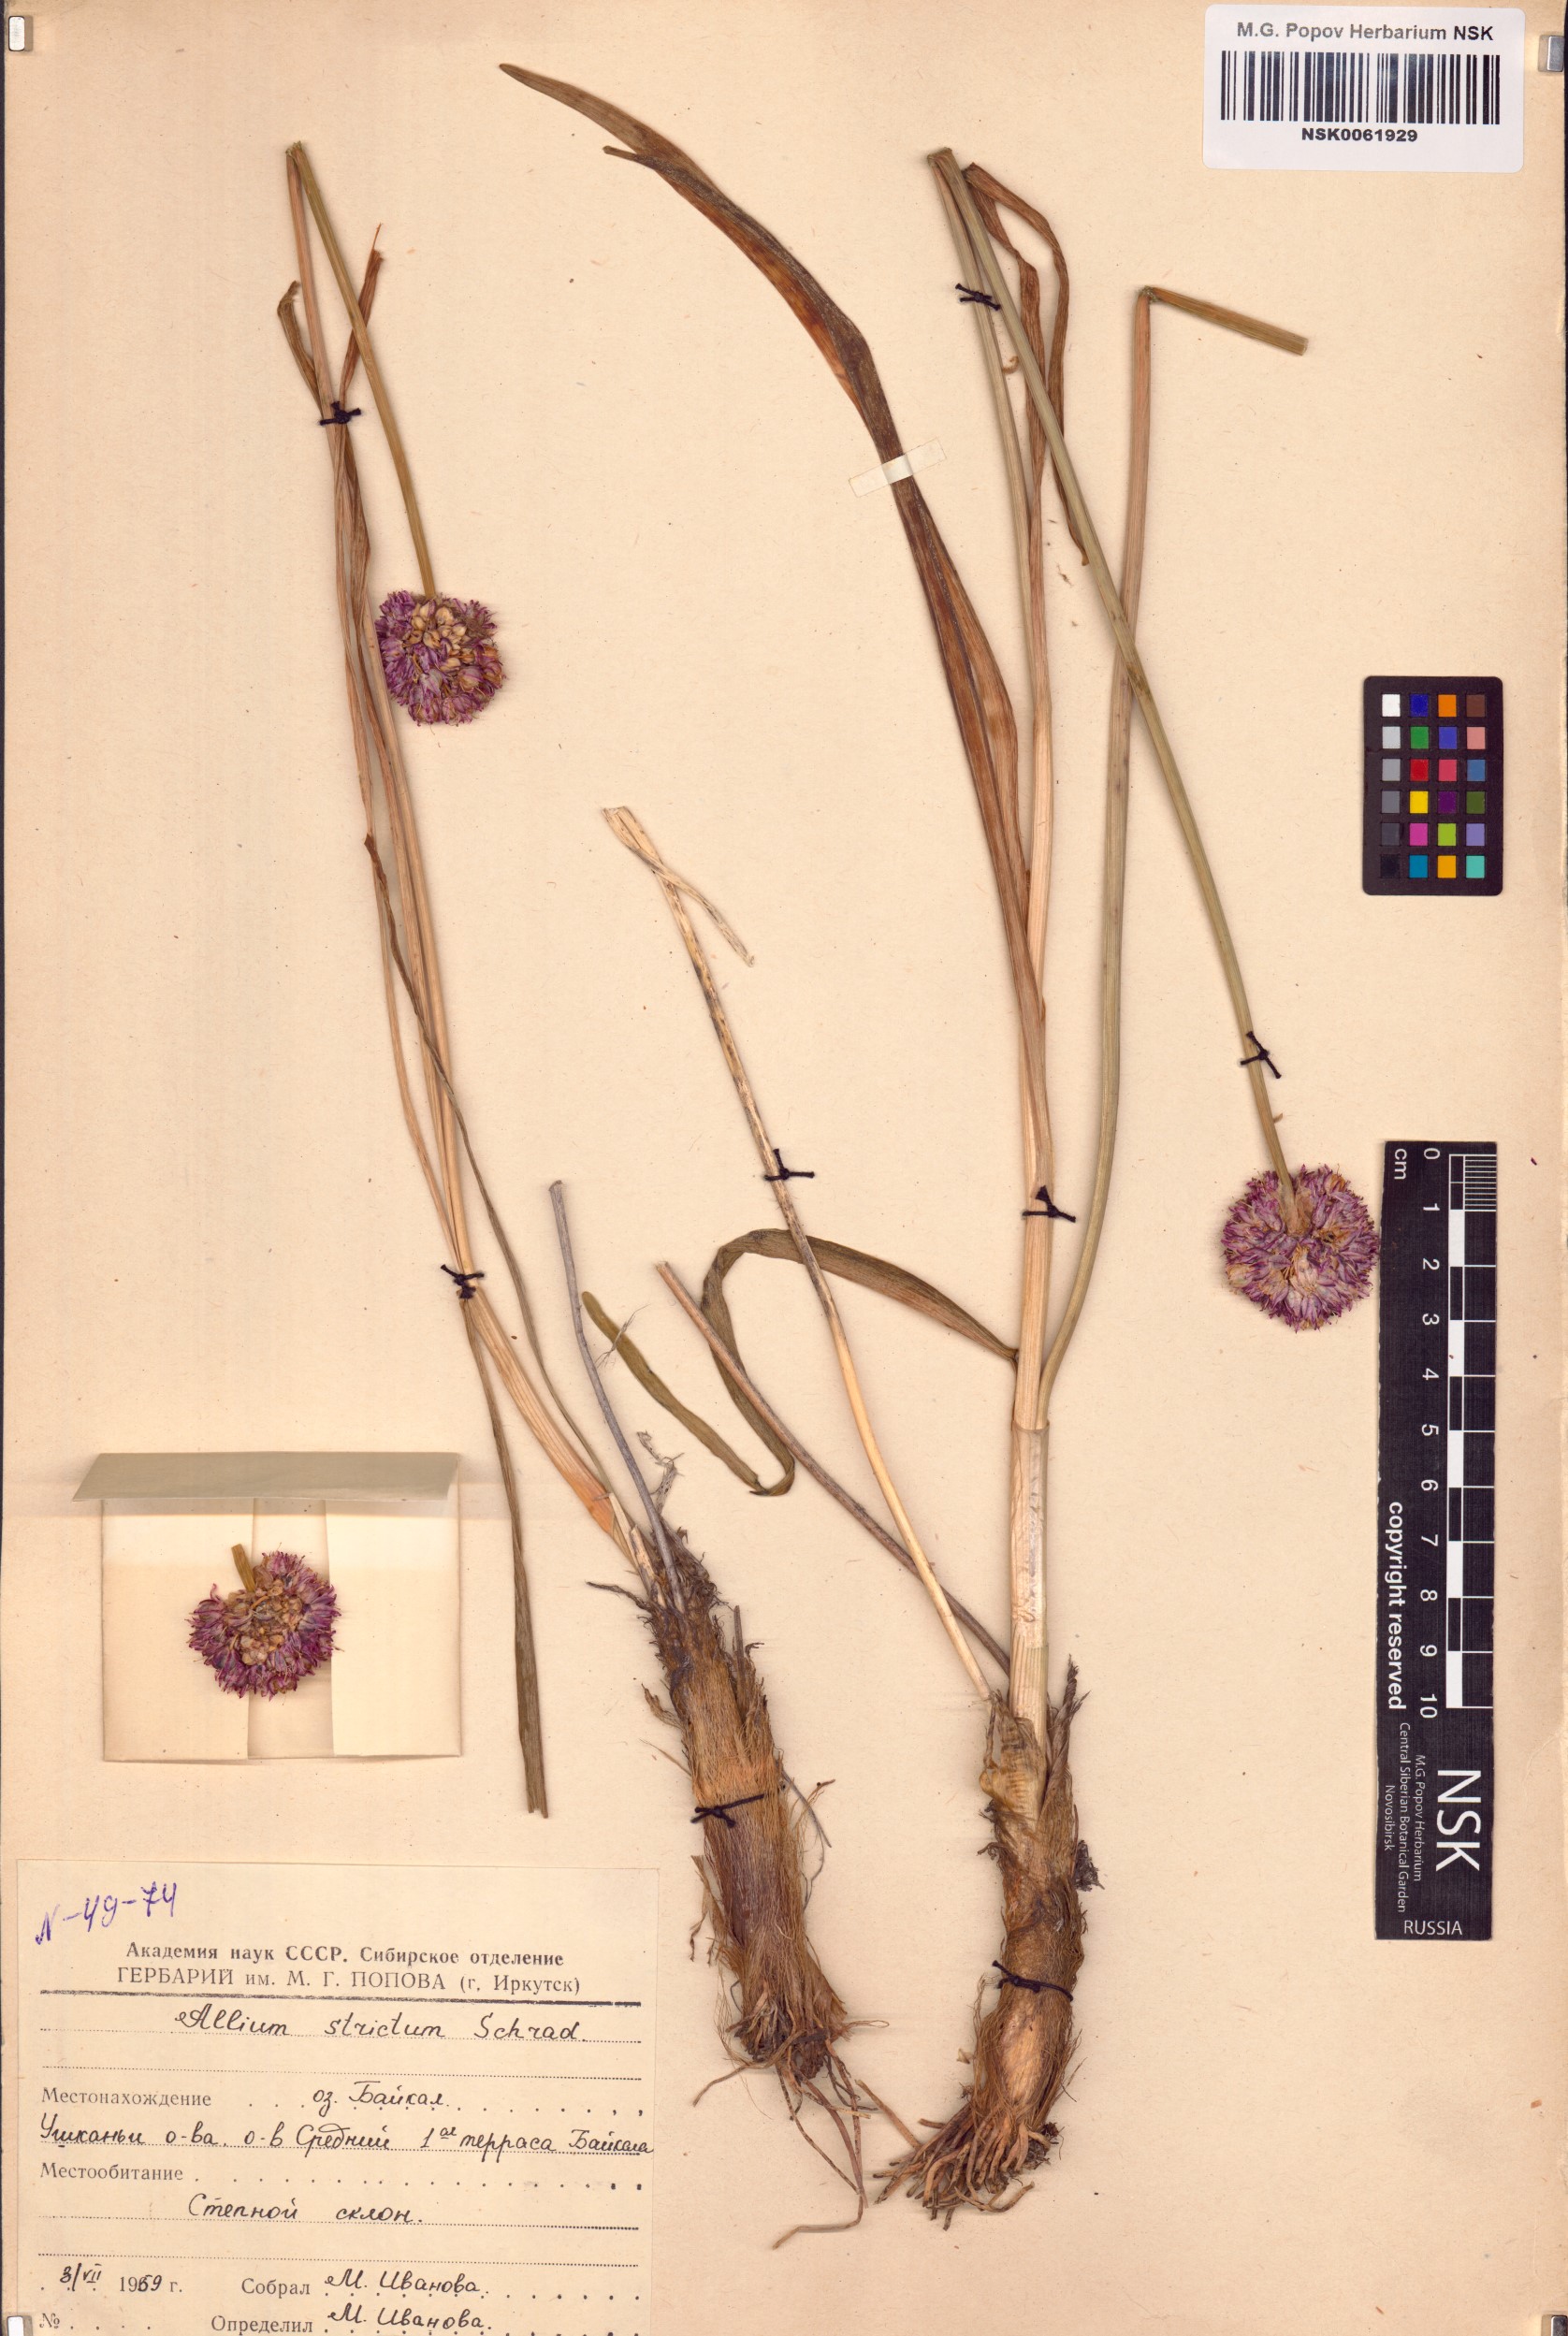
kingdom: Plantae
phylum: Tracheophyta
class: Liliopsida
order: Asparagales
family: Amaryllidaceae
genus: Allium
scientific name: Allium strictum
